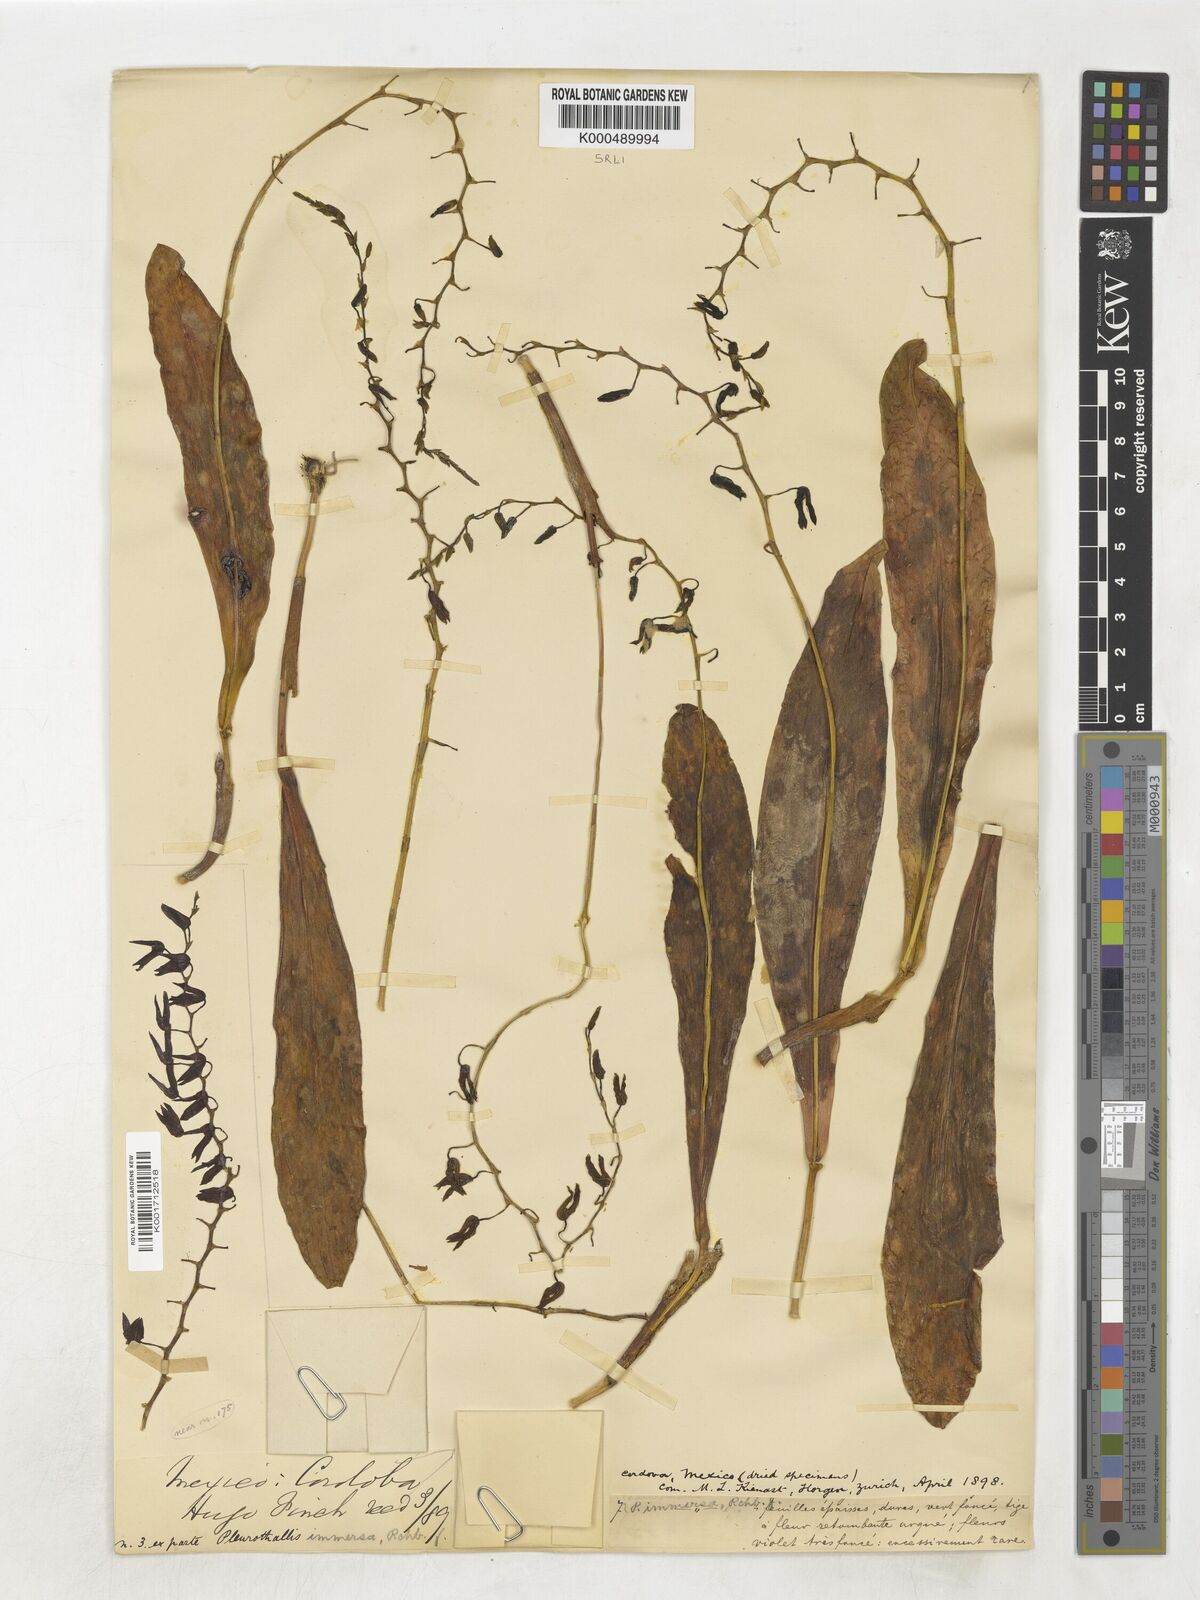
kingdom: Plantae
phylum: Tracheophyta
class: Liliopsida
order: Asparagales
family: Orchidaceae
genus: Stelis
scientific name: Stelis immersa
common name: Sunken pleurothallis
